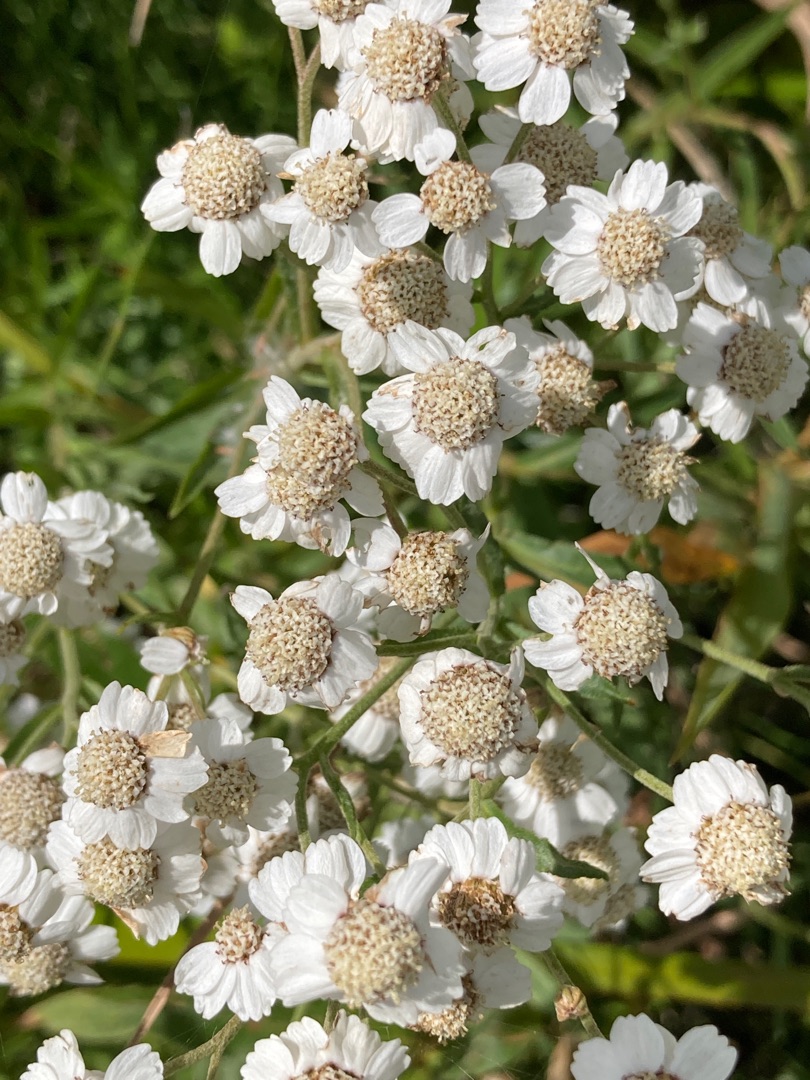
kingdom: Plantae
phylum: Tracheophyta
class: Magnoliopsida
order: Asterales
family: Asteraceae
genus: Achillea
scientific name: Achillea ptarmica
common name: Nyse-røllike
